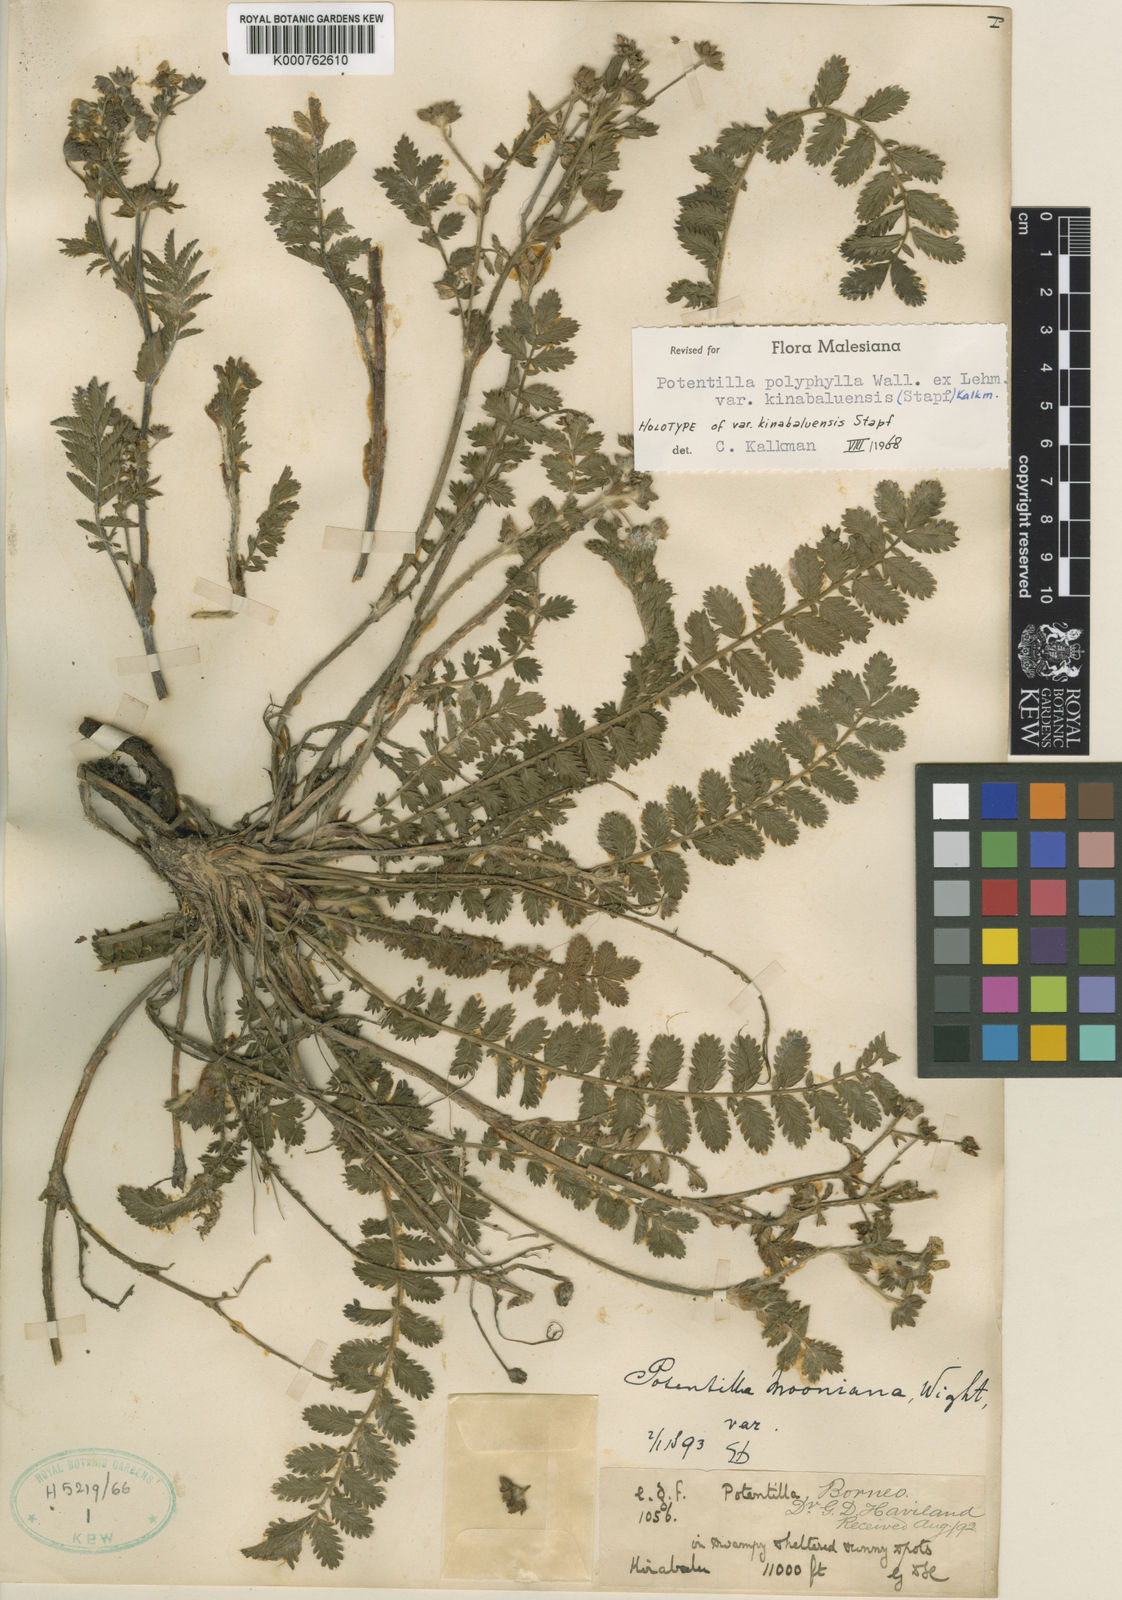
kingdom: Plantae
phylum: Tracheophyta
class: Magnoliopsida
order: Rosales
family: Rosaceae
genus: Argentina
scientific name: Argentina polyphylla
